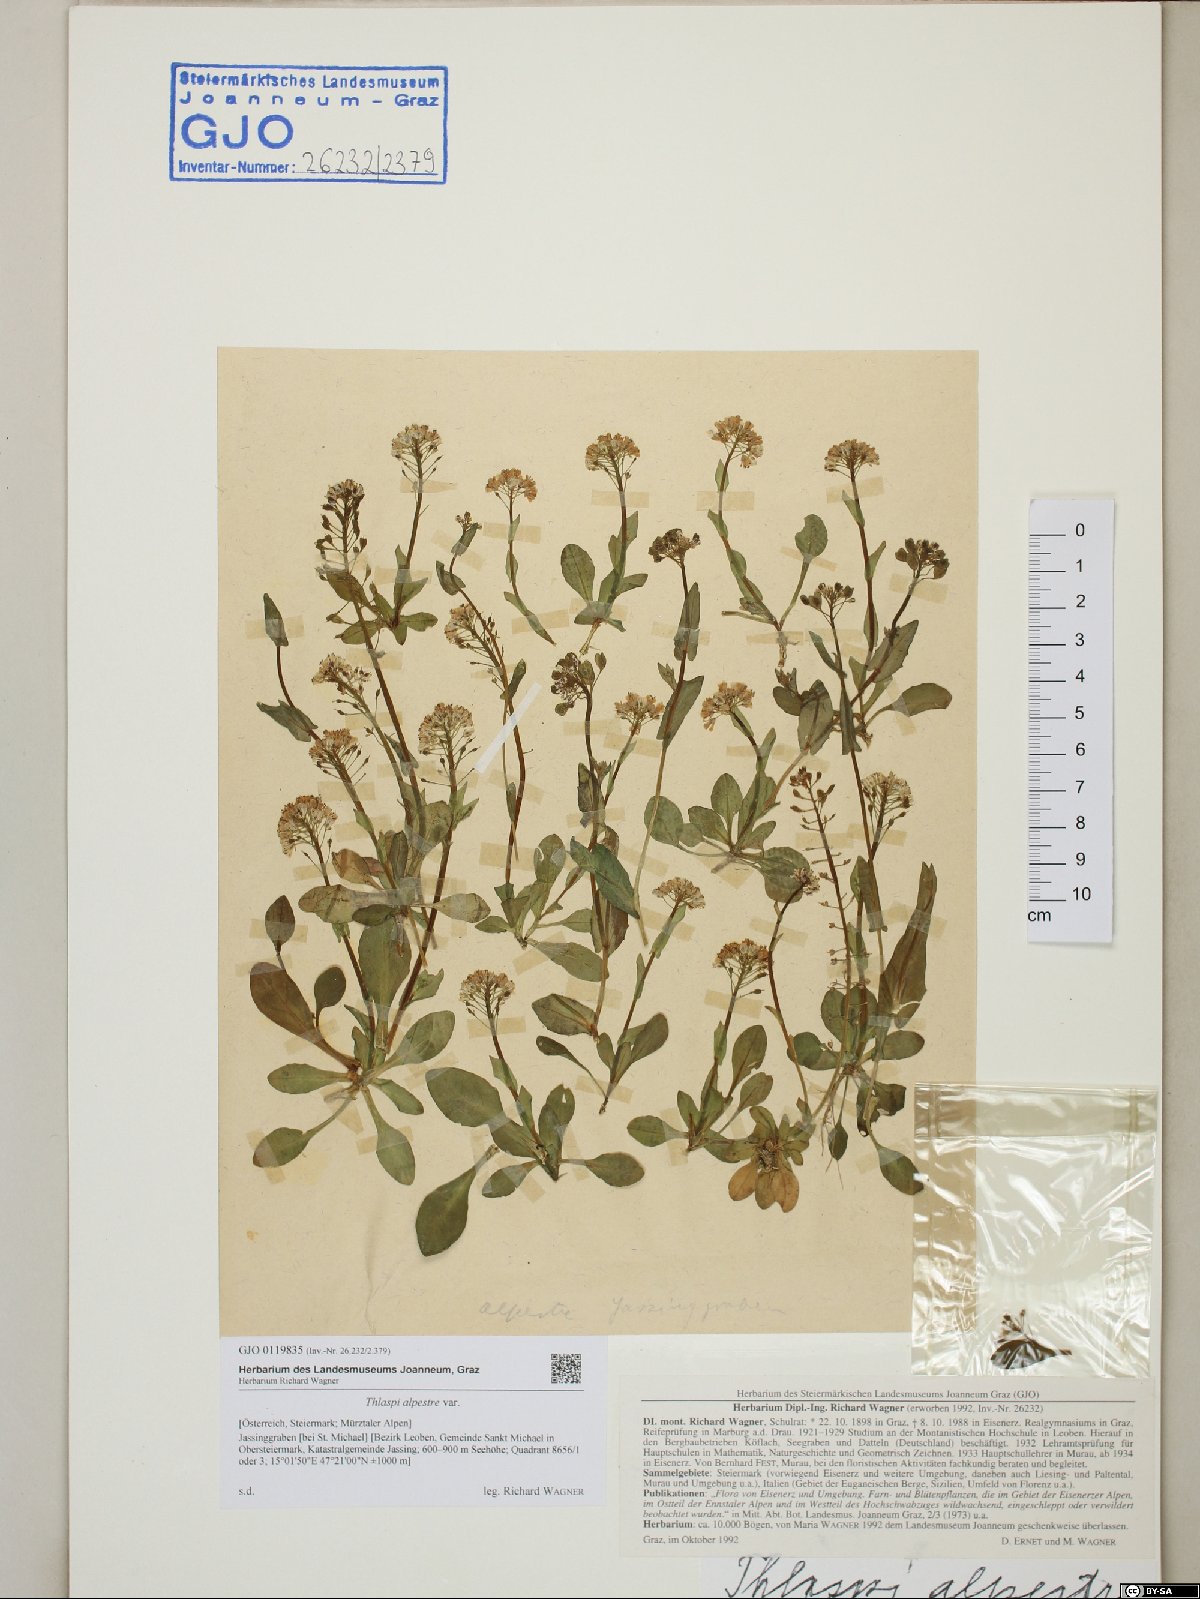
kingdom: Plantae
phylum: Tracheophyta
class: Magnoliopsida
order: Brassicales
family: Brassicaceae
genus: Noccaea
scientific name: Noccaea caerulescens
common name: Alpine pennycress
